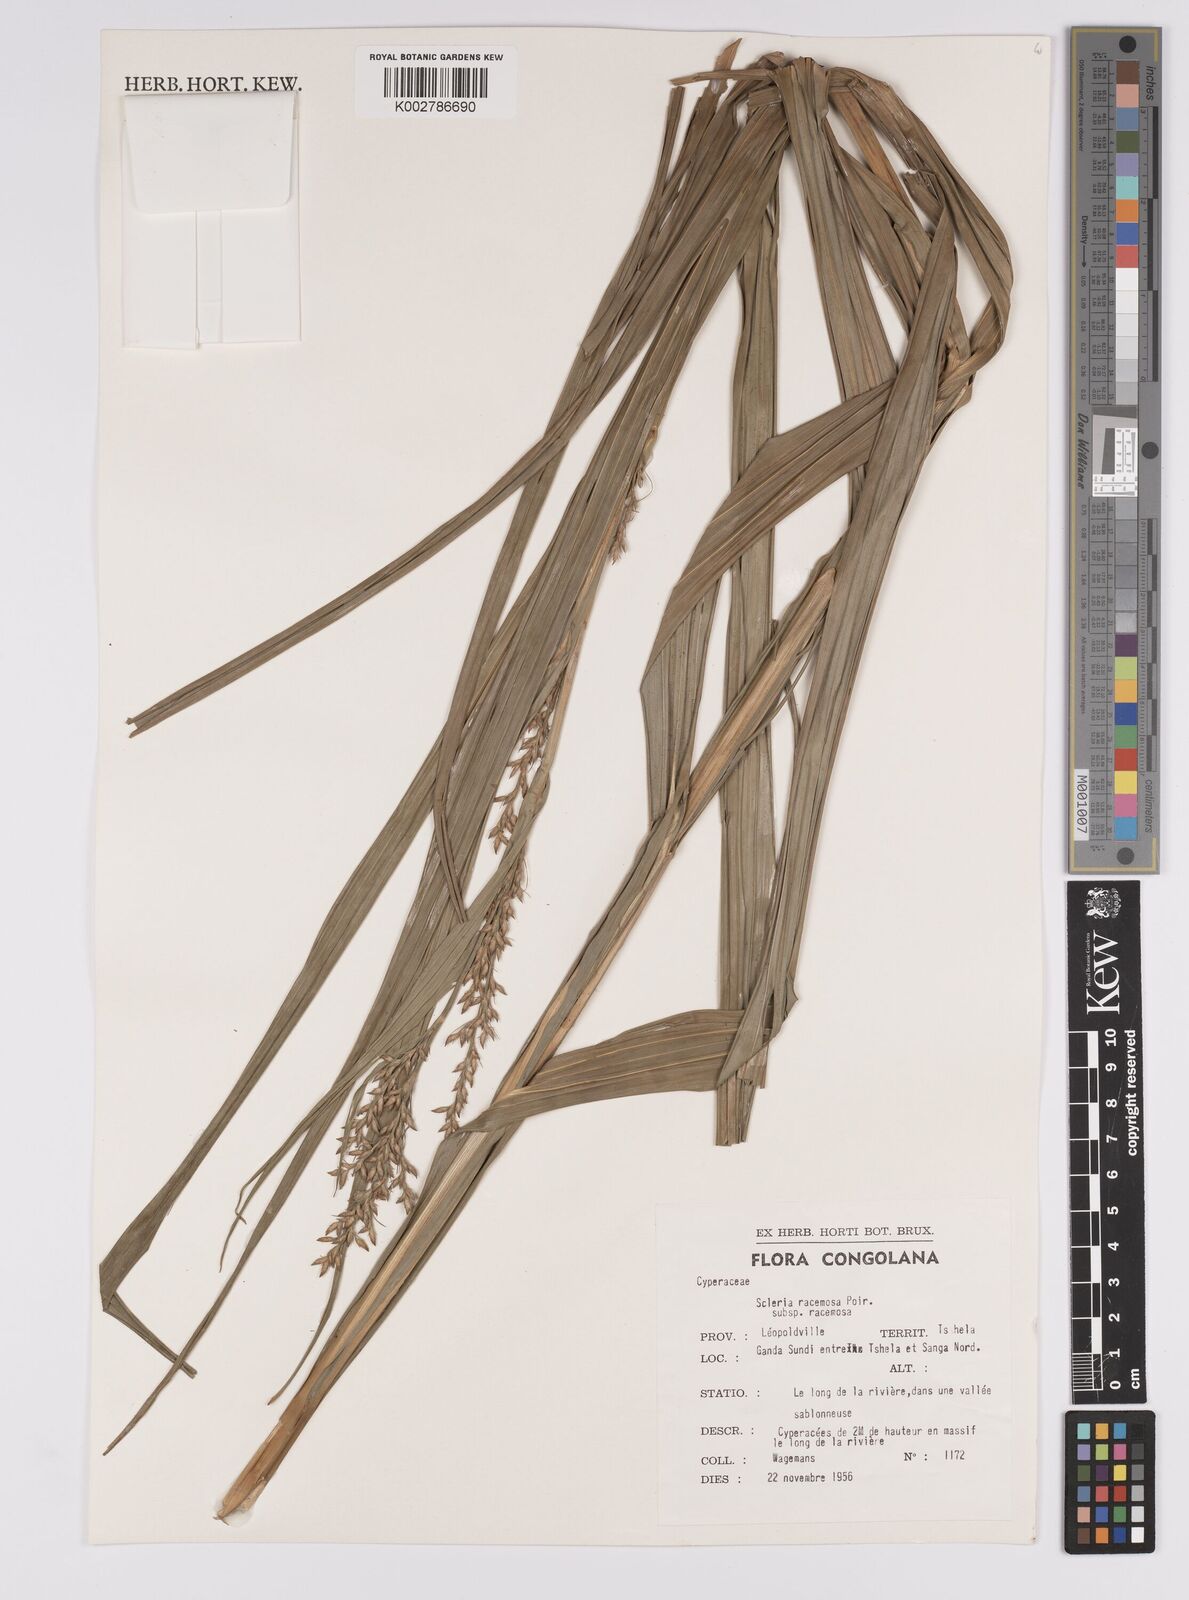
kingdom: Plantae
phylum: Tracheophyta
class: Liliopsida
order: Poales
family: Cyperaceae
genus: Scleria
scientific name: Scleria racemosa
